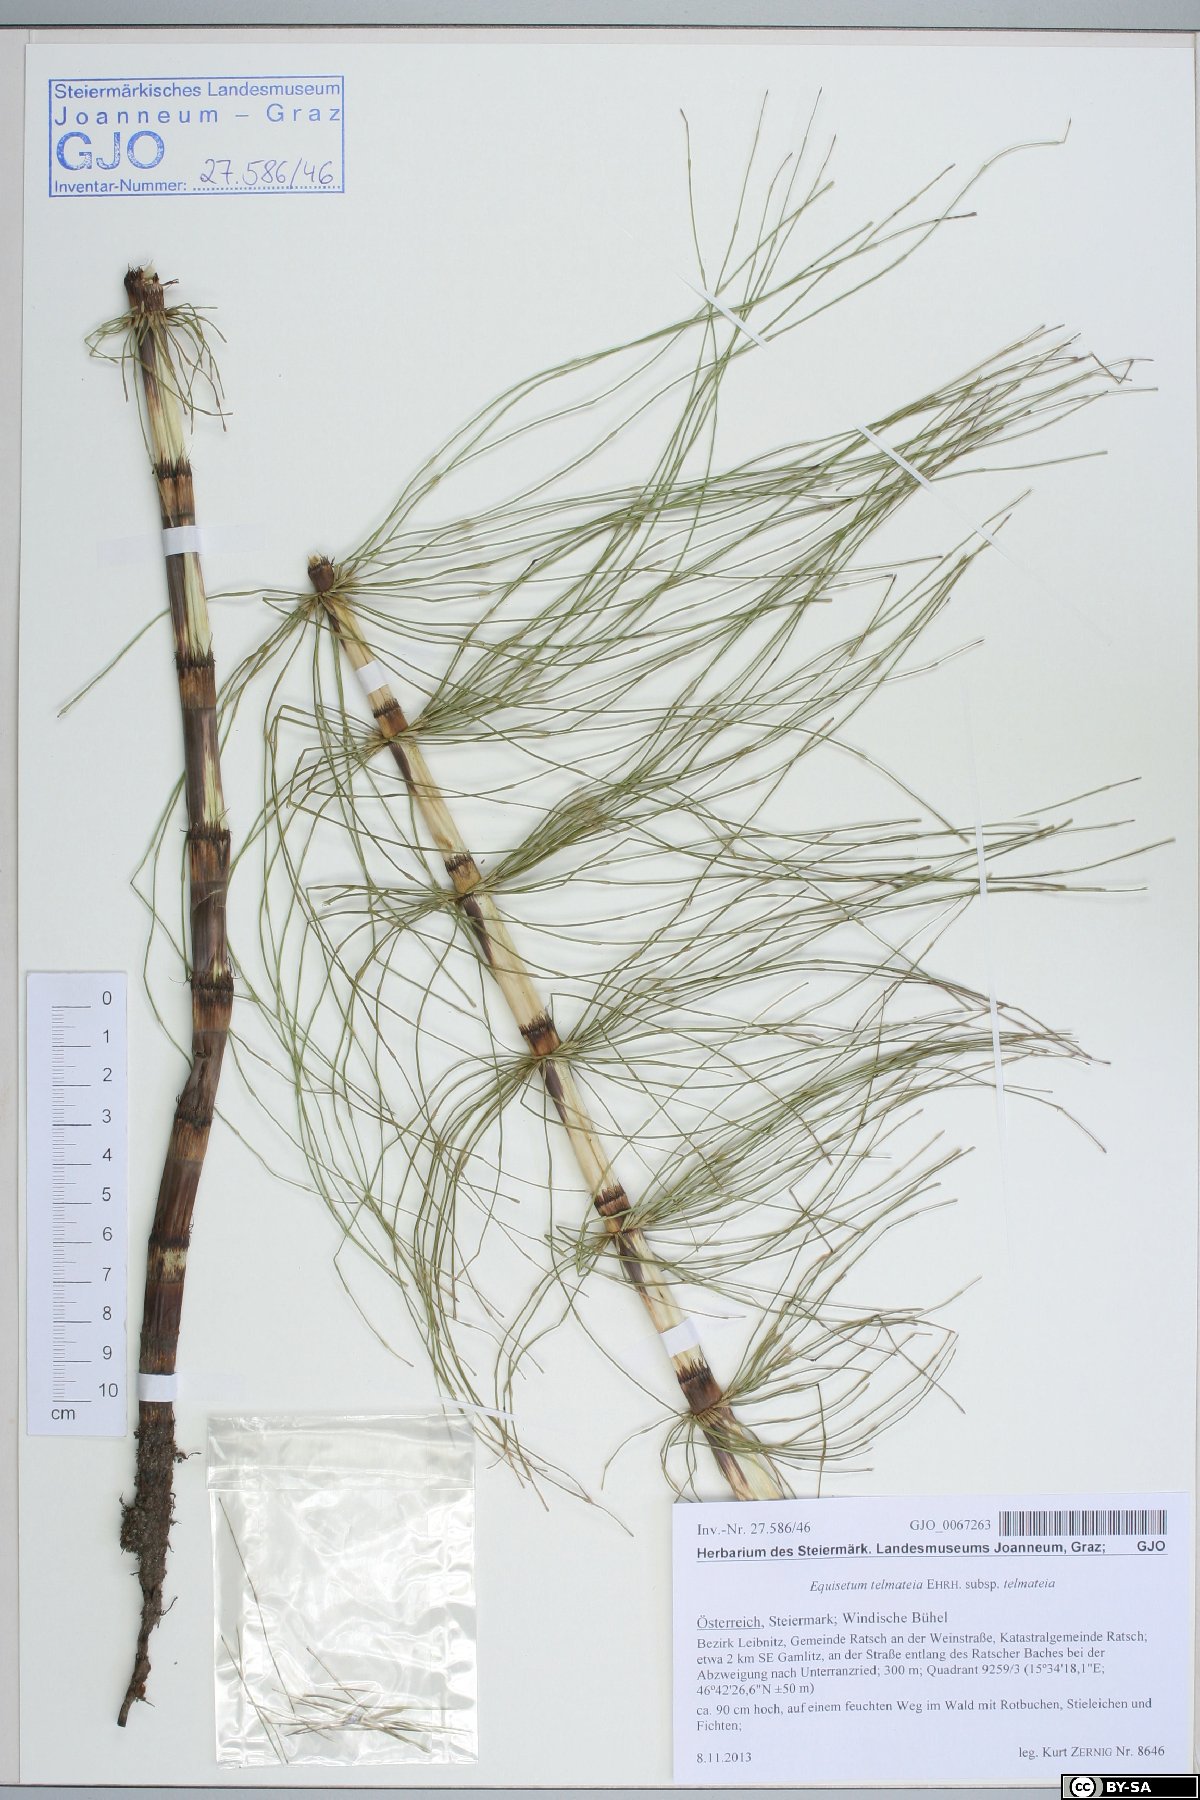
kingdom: Plantae
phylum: Tracheophyta
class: Polypodiopsida
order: Equisetales
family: Equisetaceae
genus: Equisetum
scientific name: Equisetum telmateia
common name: Great horsetail
